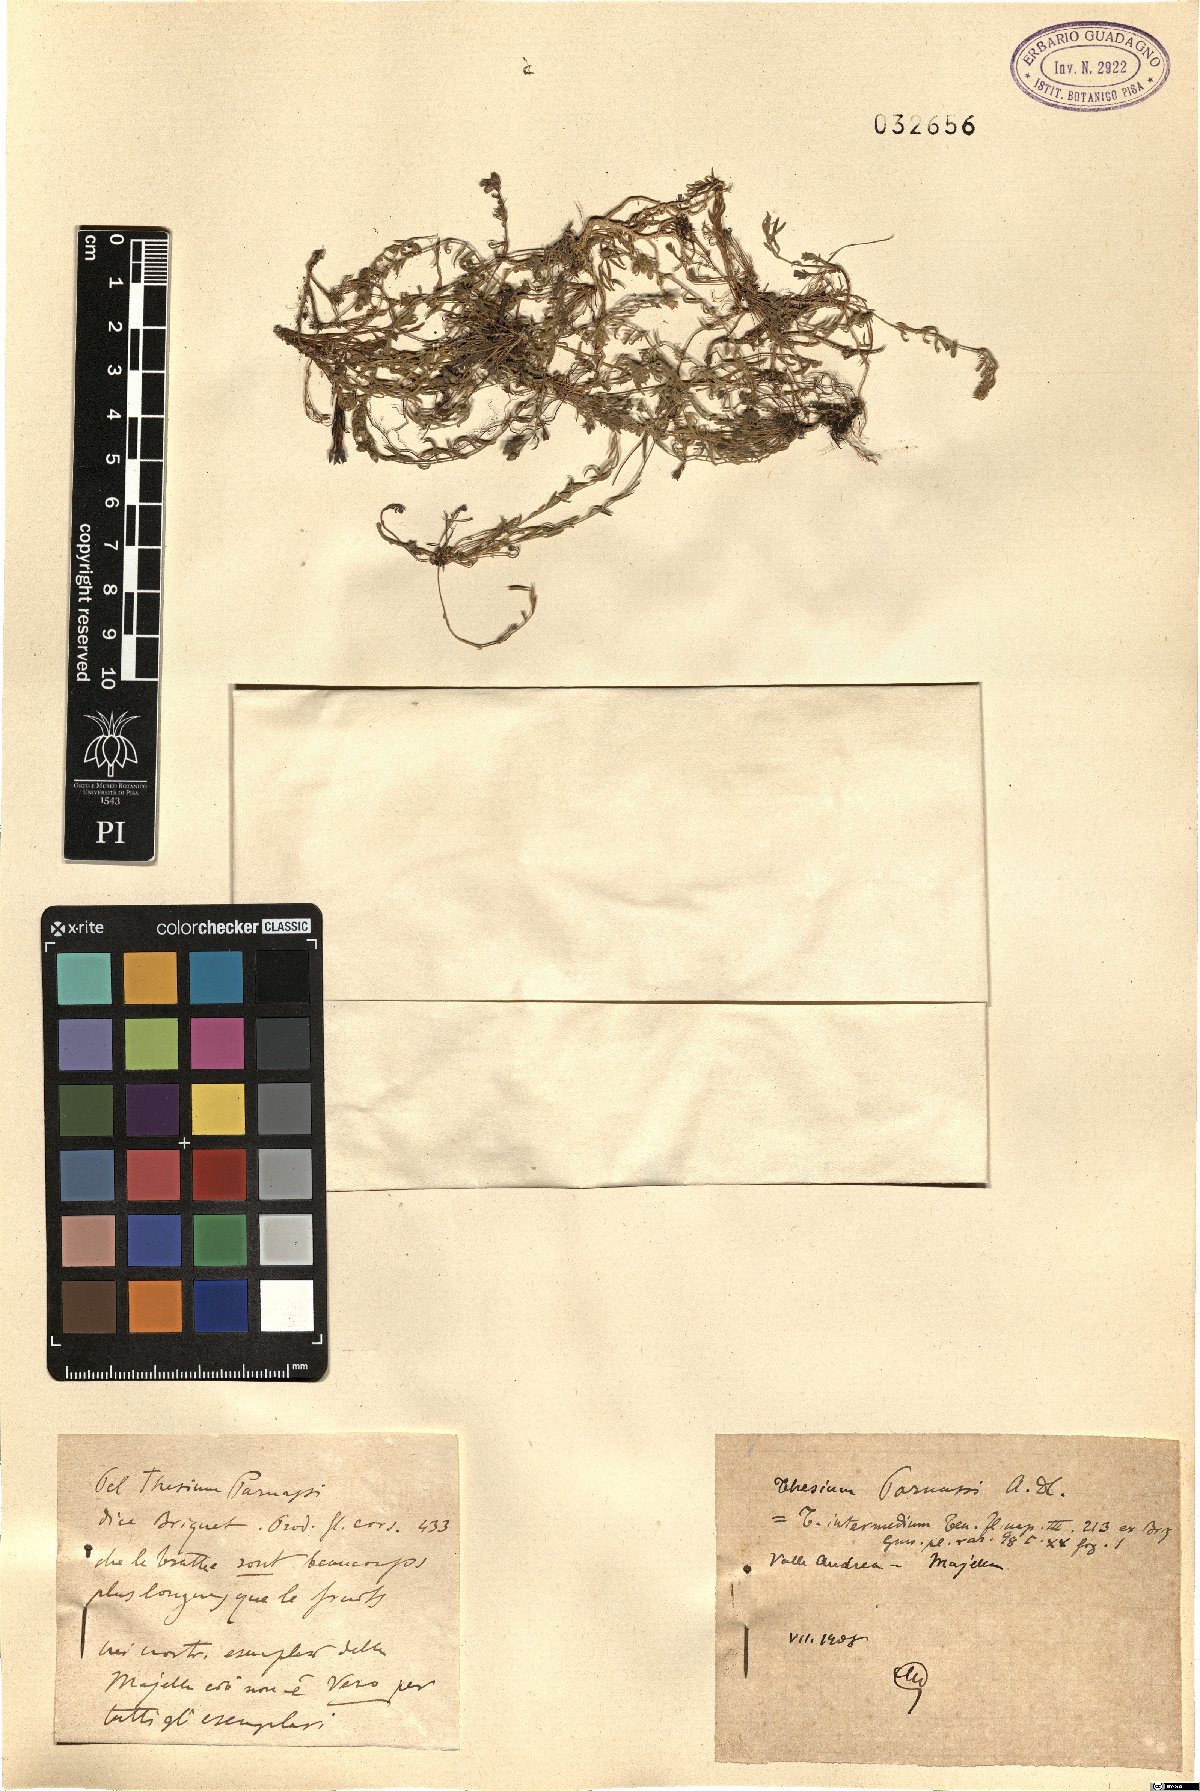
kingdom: Plantae
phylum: Tracheophyta
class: Magnoliopsida
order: Santalales
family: Thesiaceae
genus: Thesium
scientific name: Thesium parnassi
